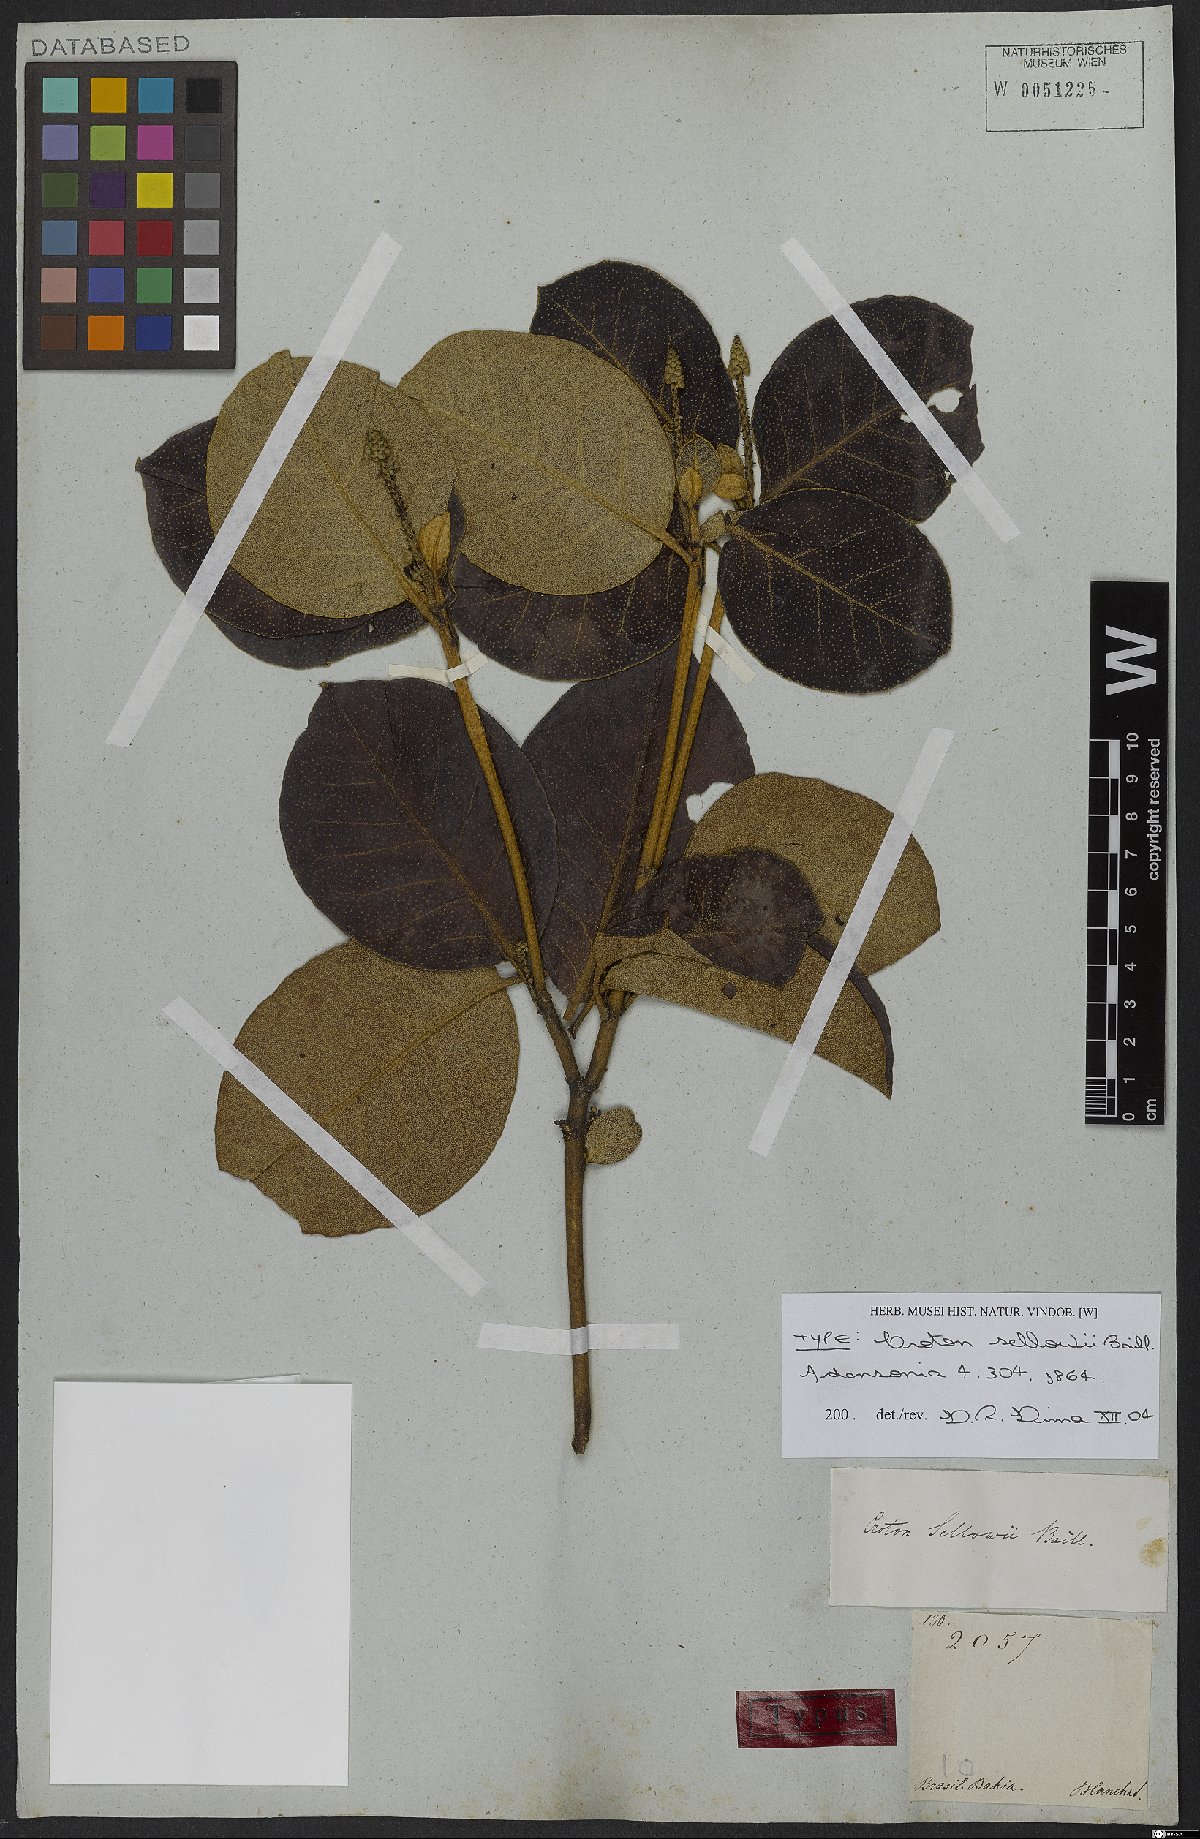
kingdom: Plantae
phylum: Tracheophyta
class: Magnoliopsida
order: Malpighiales
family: Euphorbiaceae
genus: Croton
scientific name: Croton sellowii
